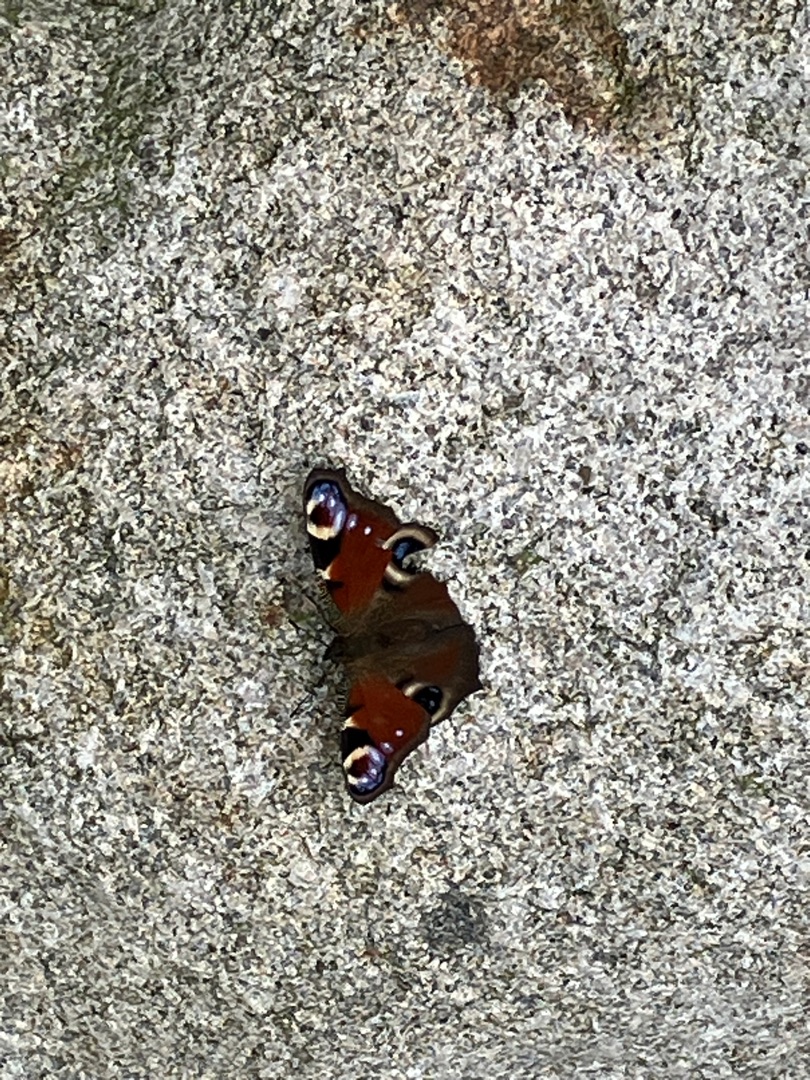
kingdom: Animalia
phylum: Arthropoda
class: Insecta
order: Lepidoptera
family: Nymphalidae
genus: Aglais
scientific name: Aglais io
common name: Dagpåfugleøje
